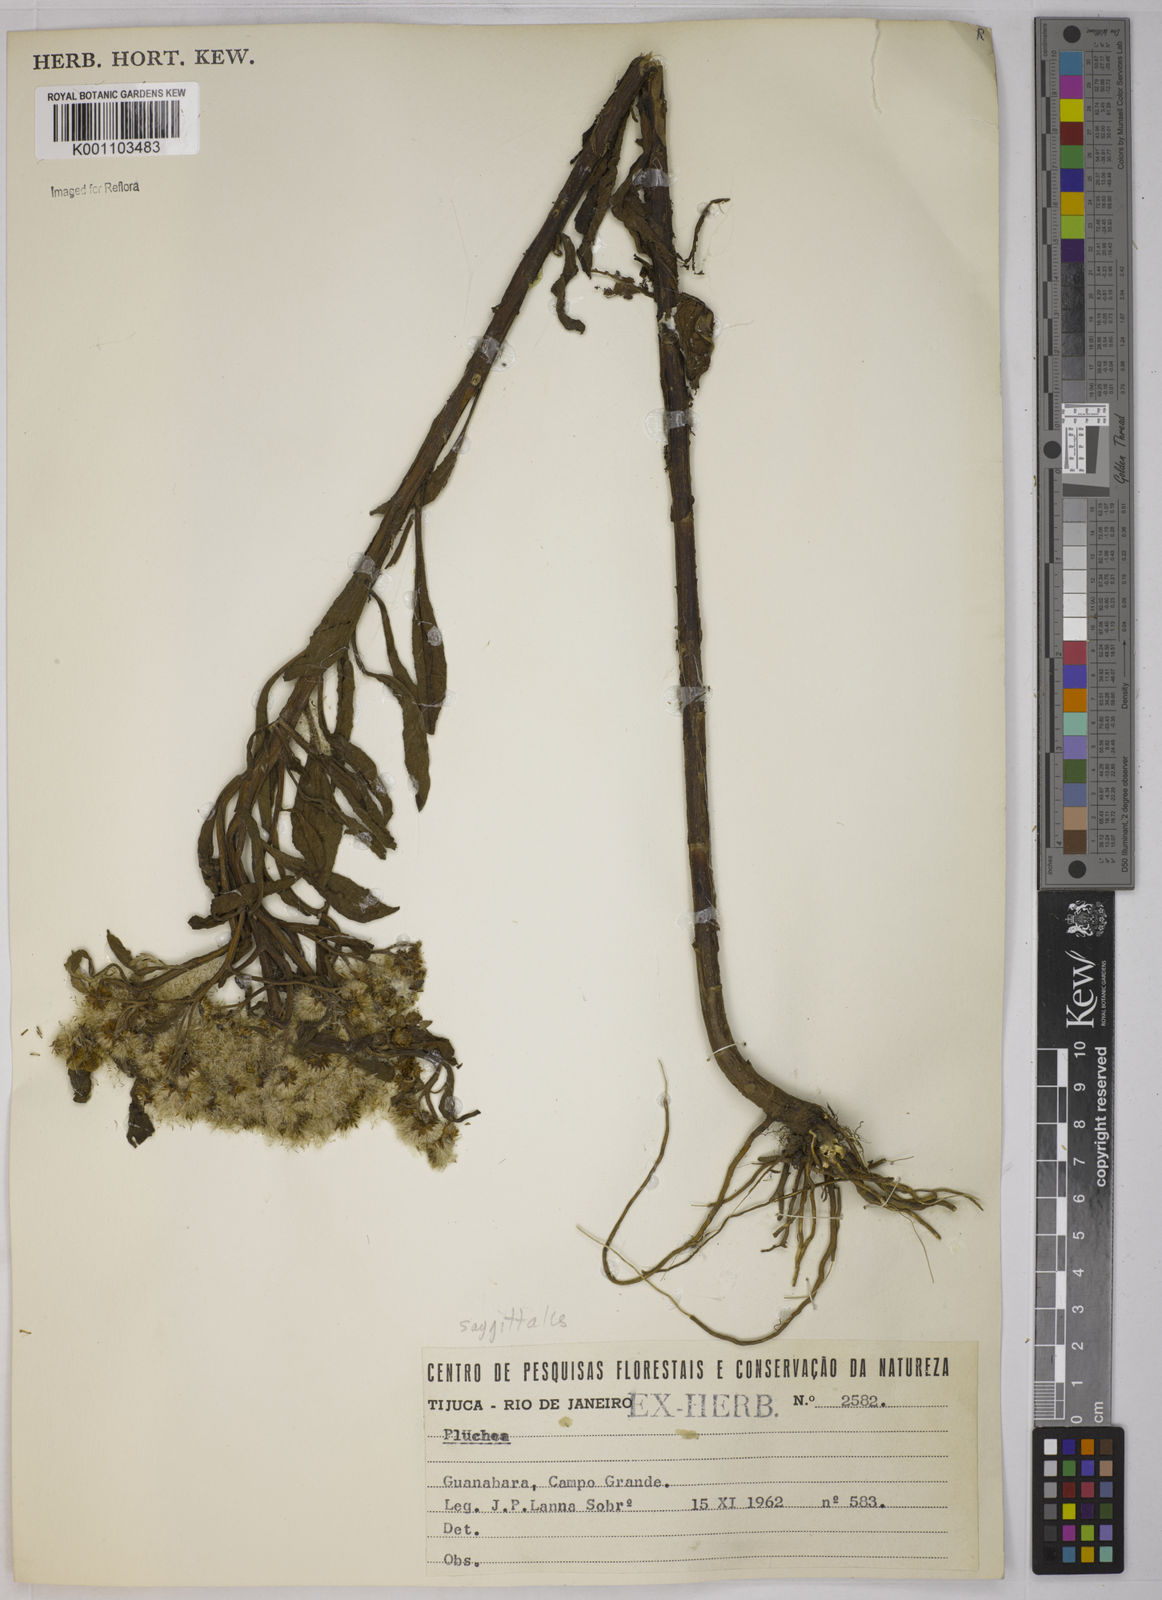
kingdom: Plantae
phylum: Tracheophyta
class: Magnoliopsida
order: Asterales
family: Asteraceae
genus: Pluchea
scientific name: Pluchea sagittalis
